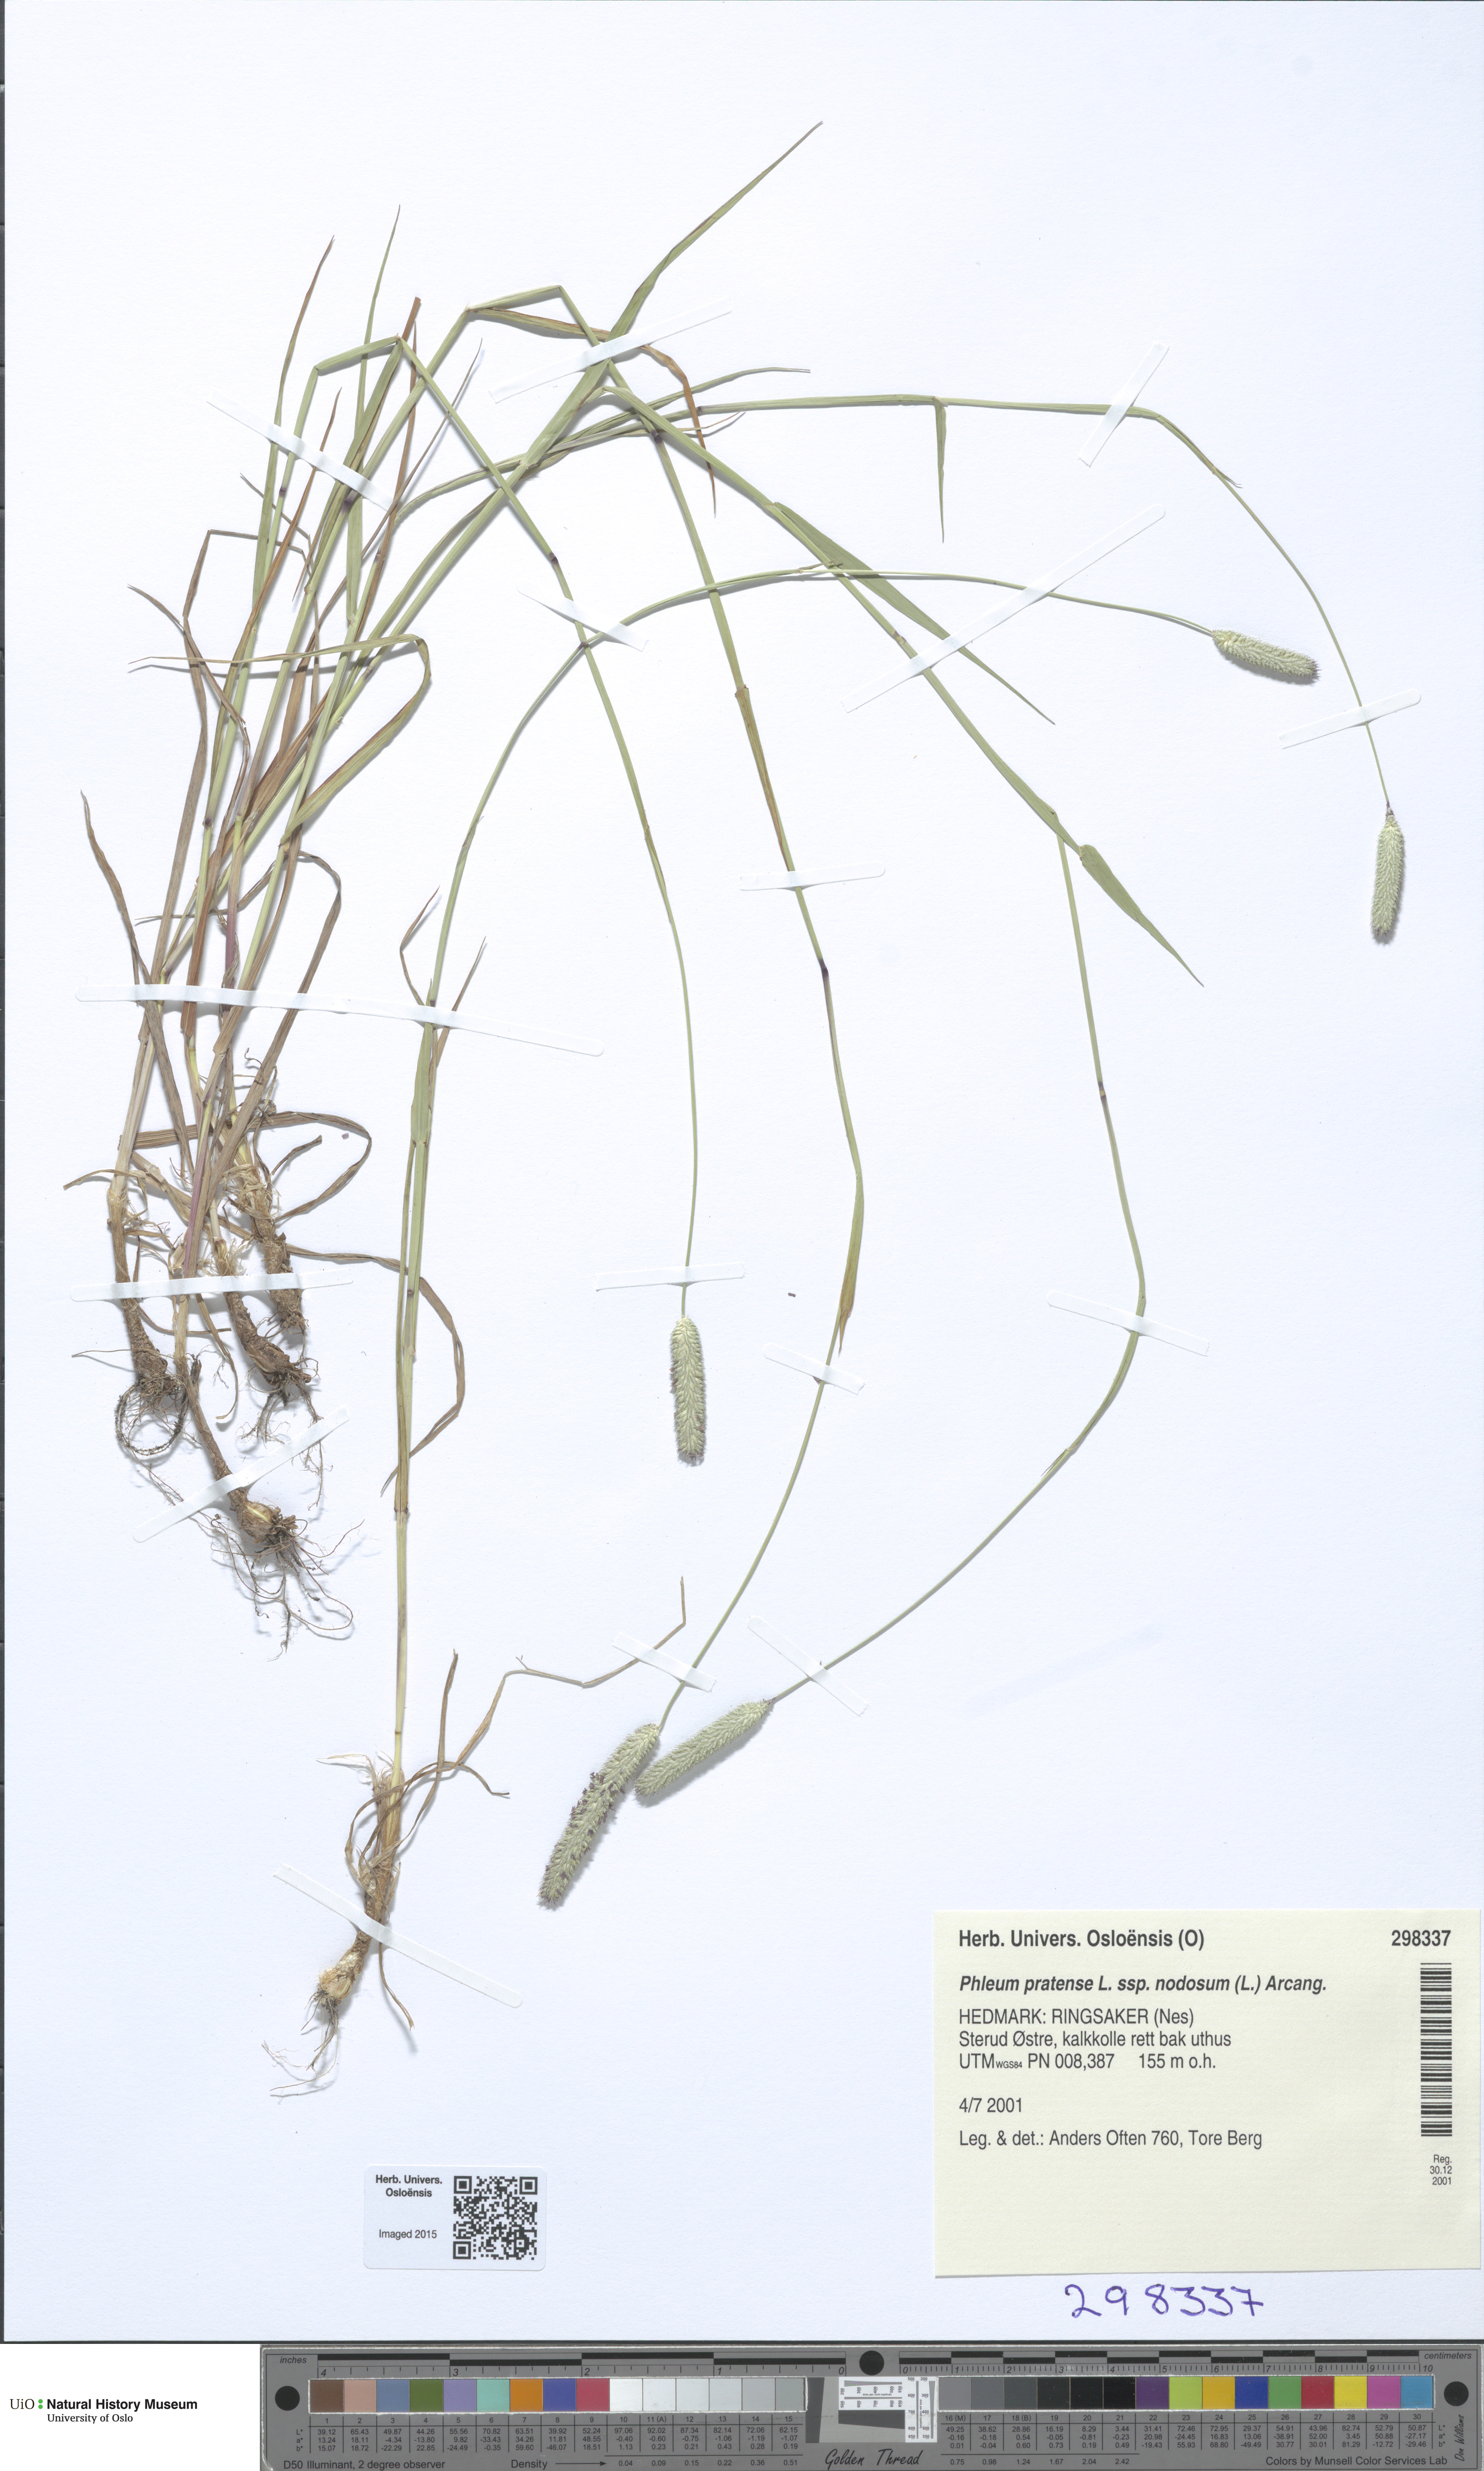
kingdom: Plantae
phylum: Tracheophyta
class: Liliopsida
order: Poales
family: Poaceae
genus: Phleum
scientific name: Phleum pratense
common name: Timothy grass
